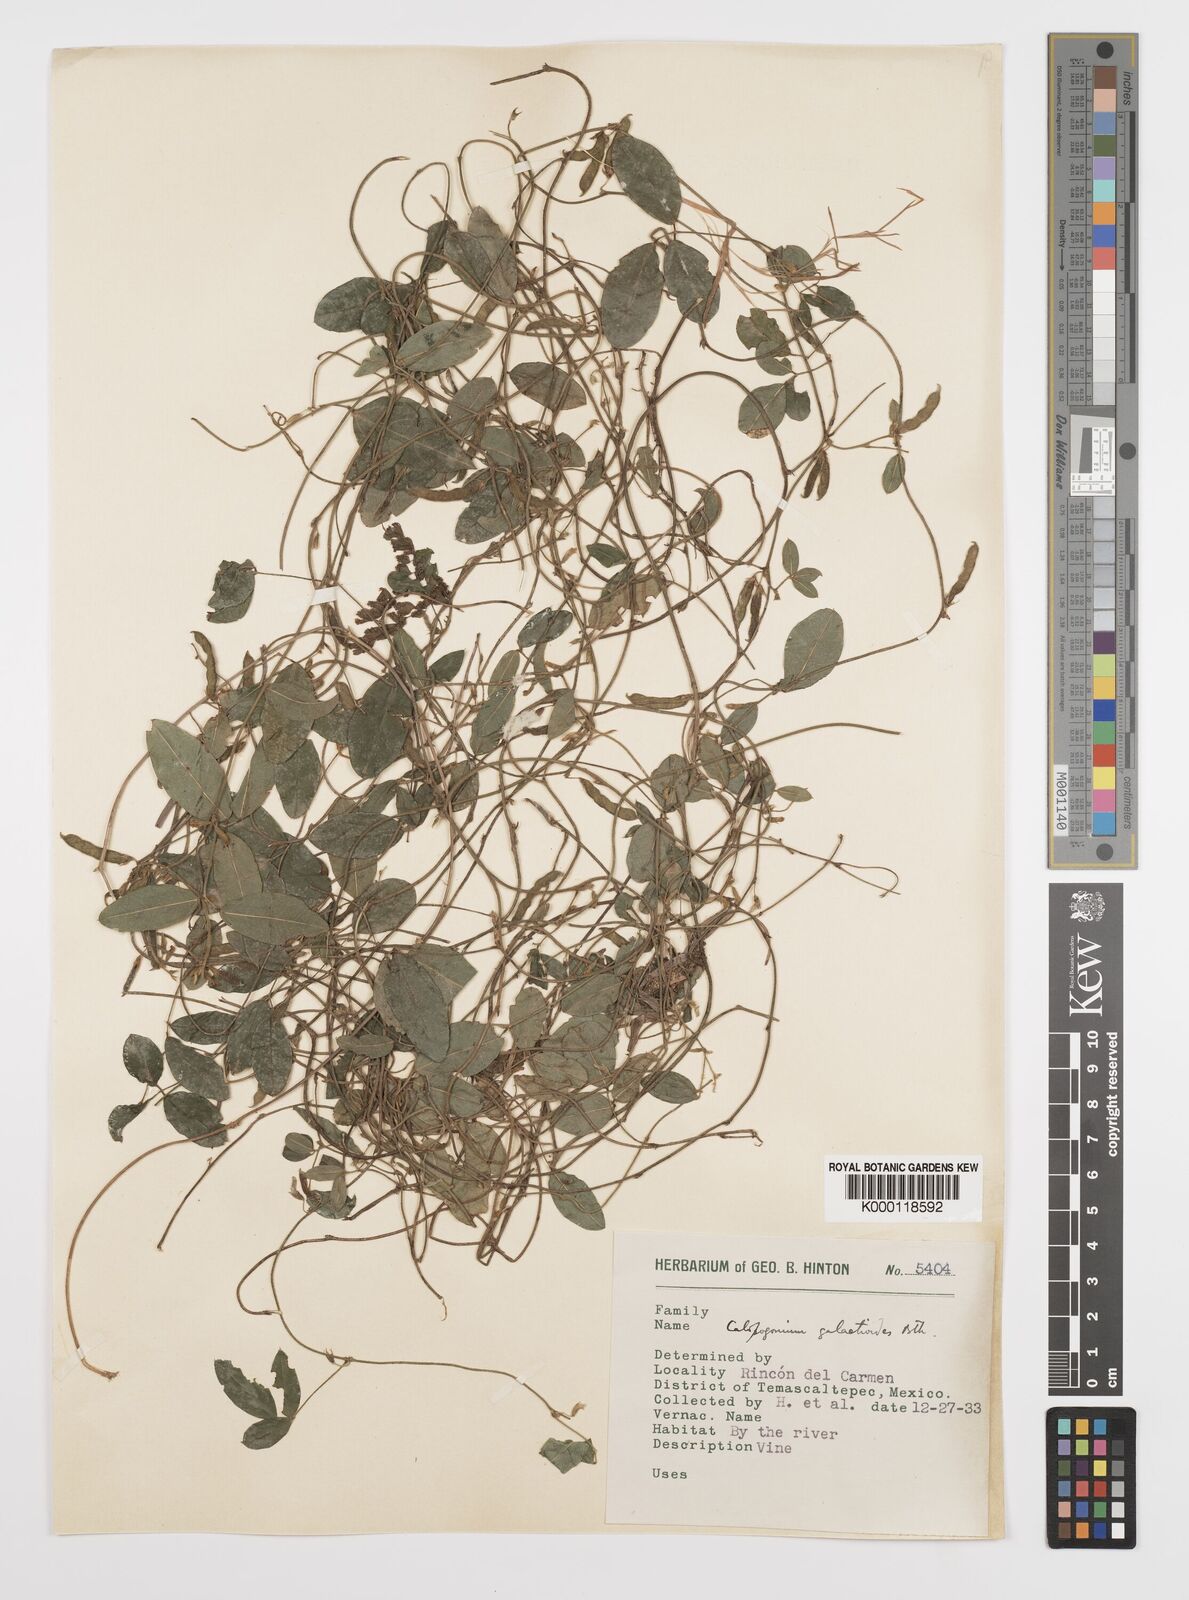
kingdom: Plantae
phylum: Tracheophyta
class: Magnoliopsida
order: Fabales
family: Fabaceae
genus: Calopogonium
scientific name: Calopogonium
